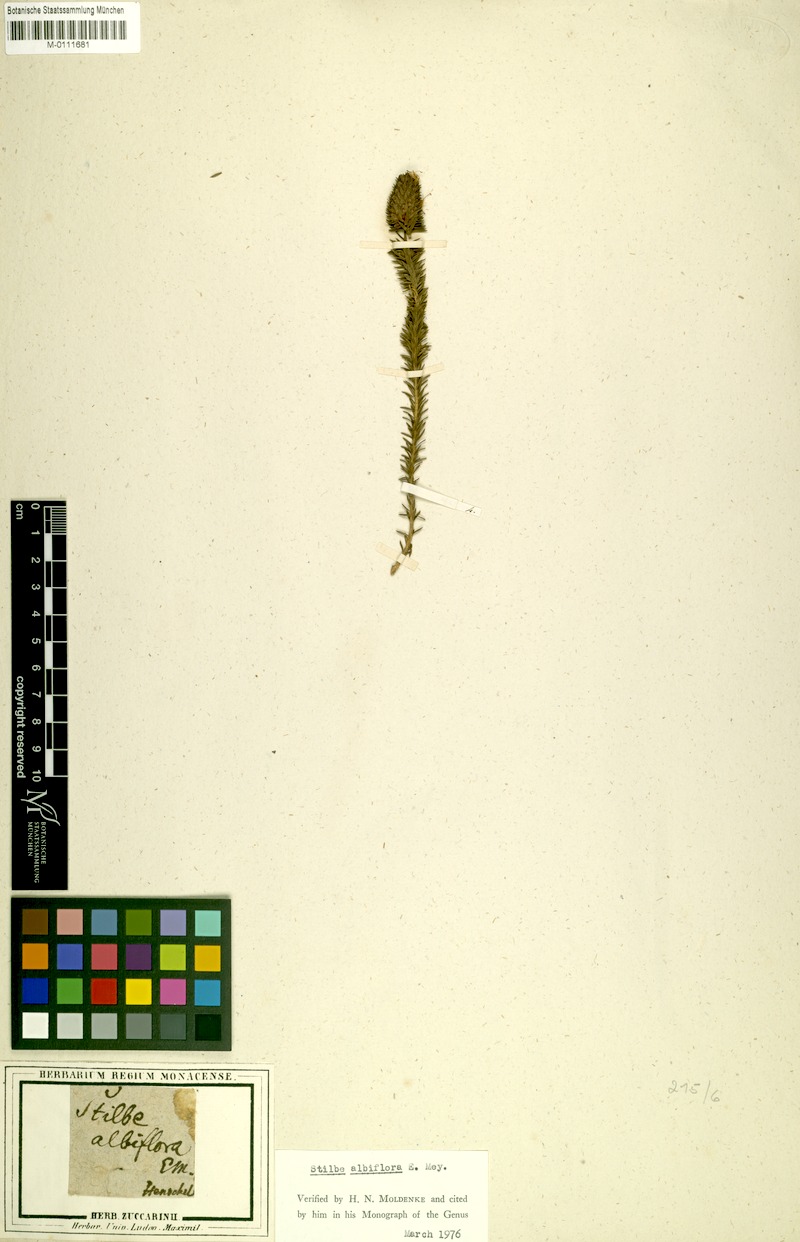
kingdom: Plantae
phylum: Tracheophyta
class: Magnoliopsida
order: Lamiales
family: Stilbaceae
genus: Stilbe
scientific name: Stilbe albiflora
